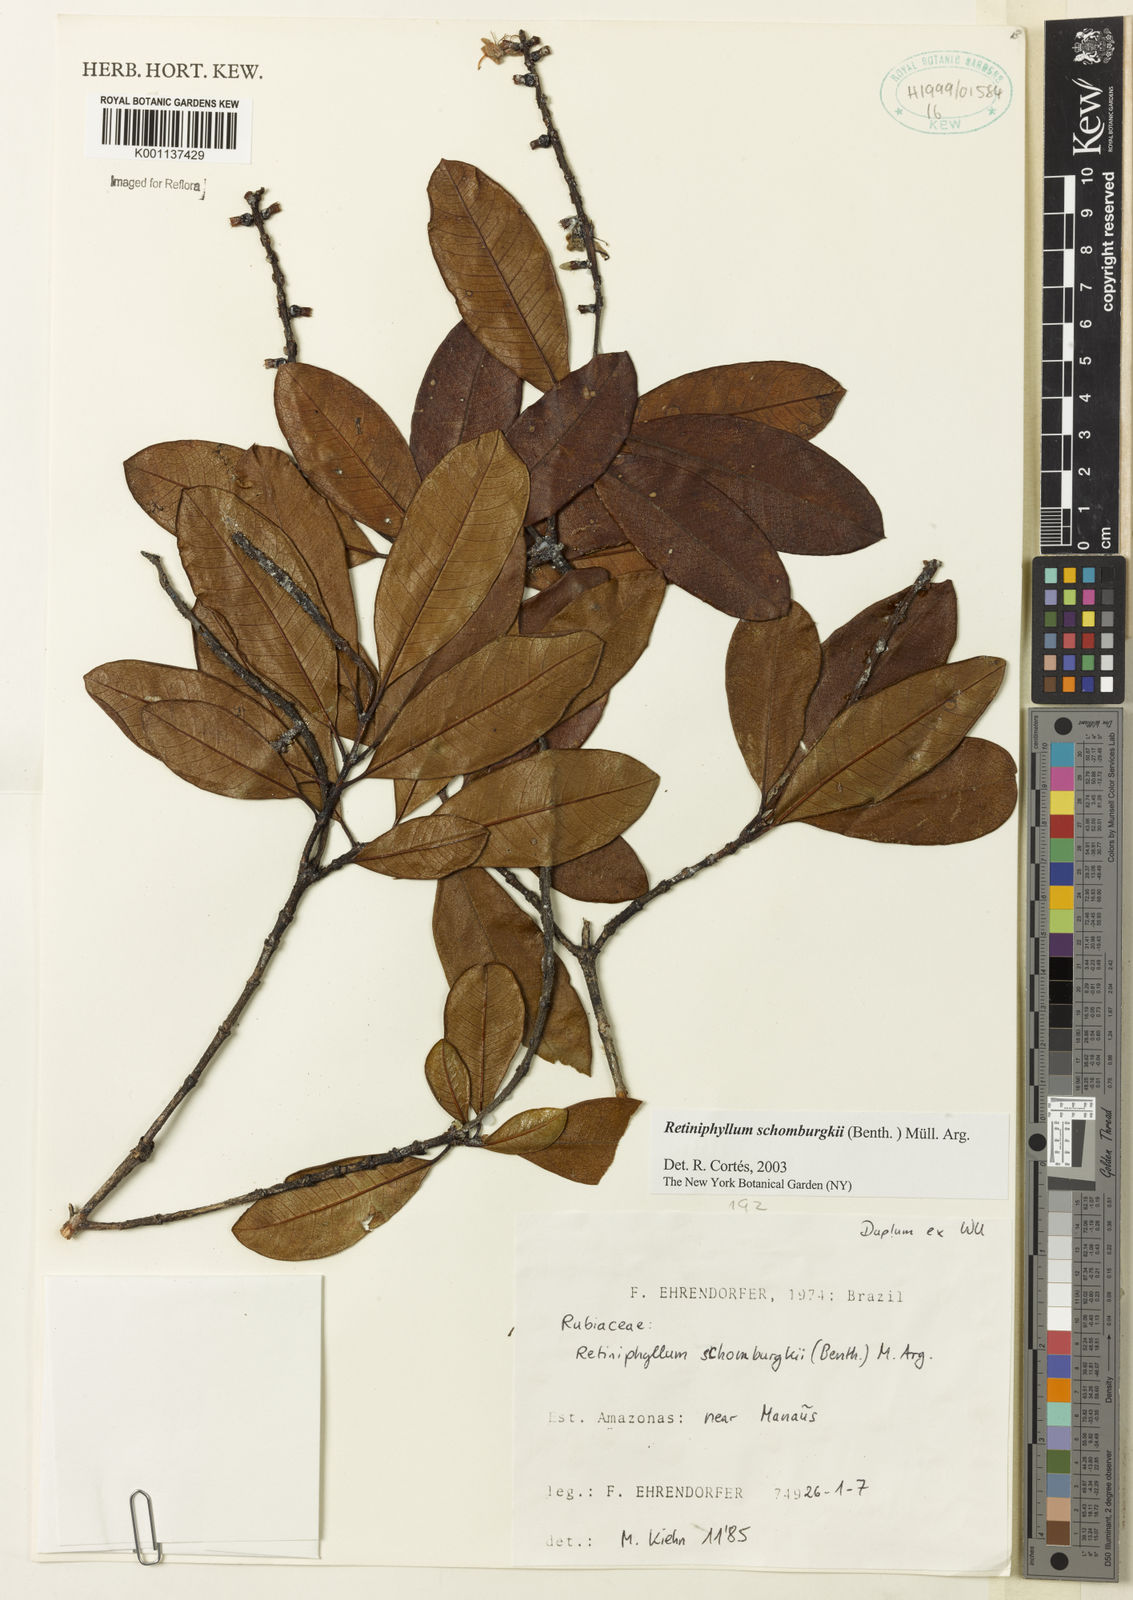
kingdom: Plantae
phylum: Tracheophyta
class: Magnoliopsida
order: Gentianales
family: Rubiaceae
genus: Retiniphyllum
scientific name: Retiniphyllum
